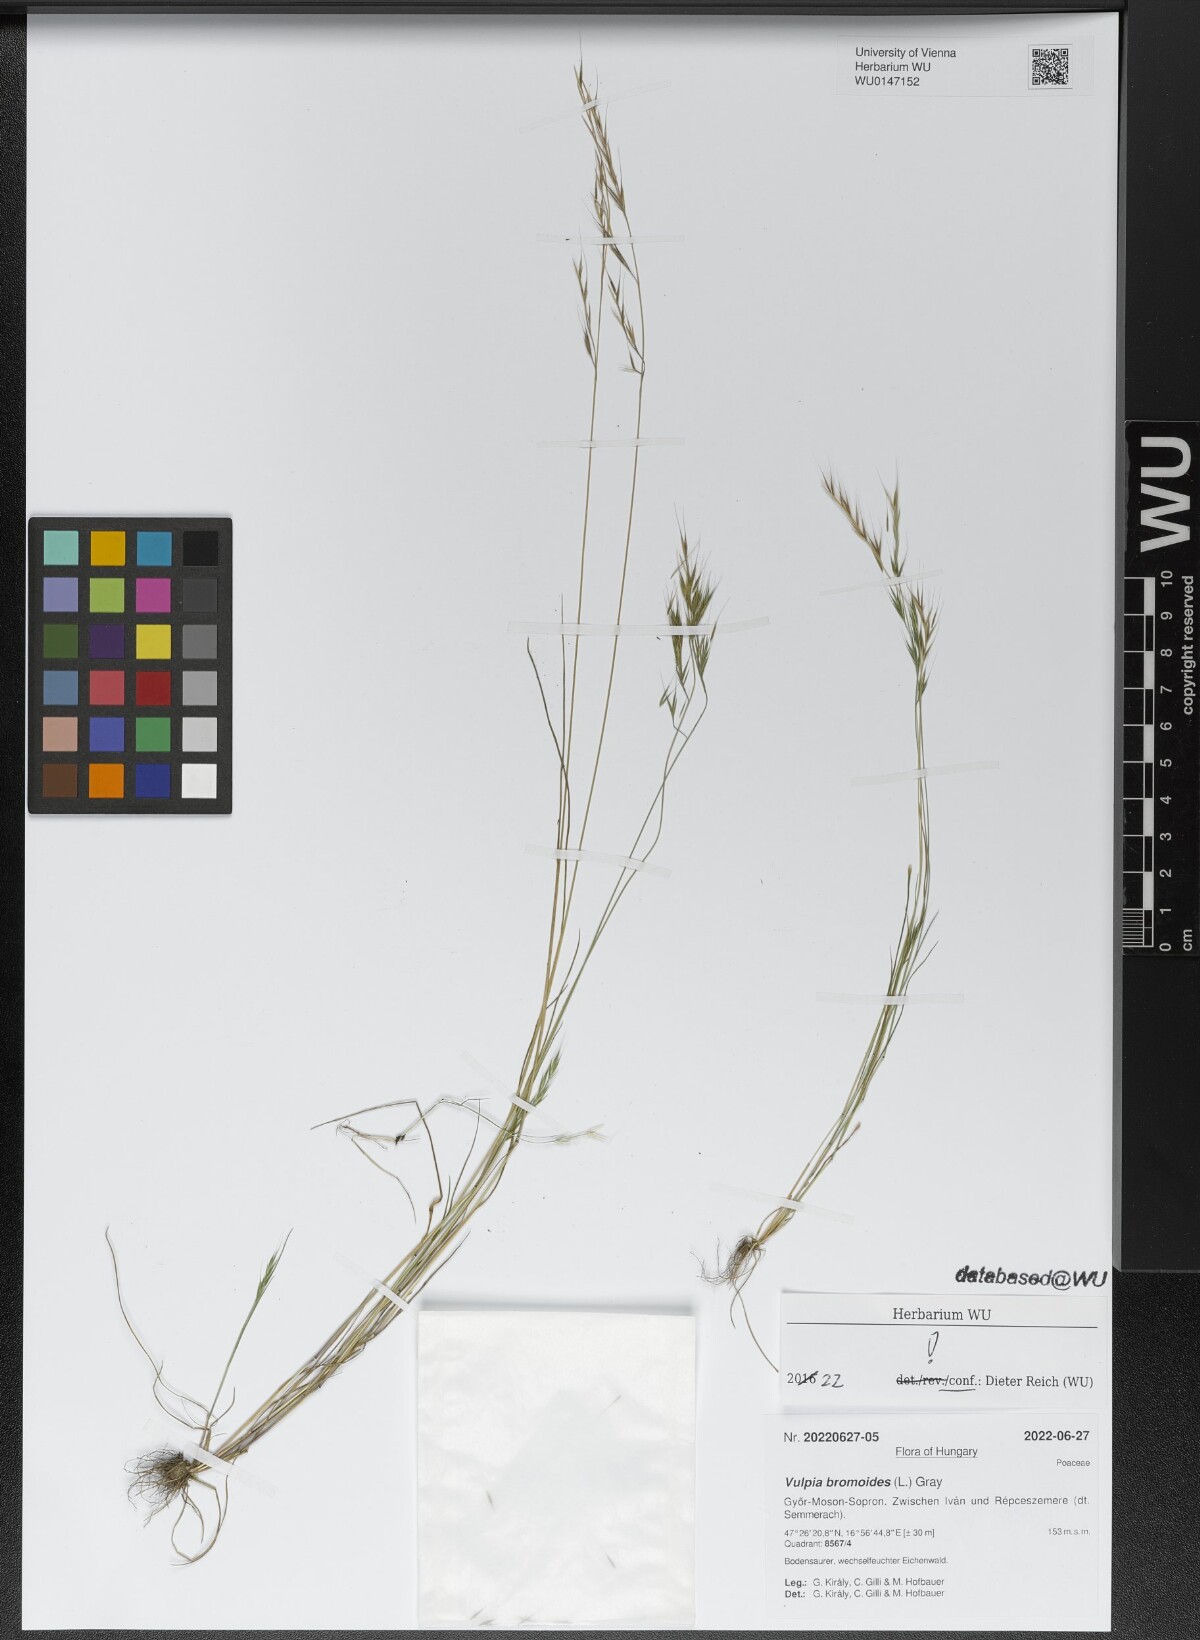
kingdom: Plantae
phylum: Tracheophyta
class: Liliopsida
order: Poales
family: Poaceae
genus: Festuca
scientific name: Festuca bromoides
